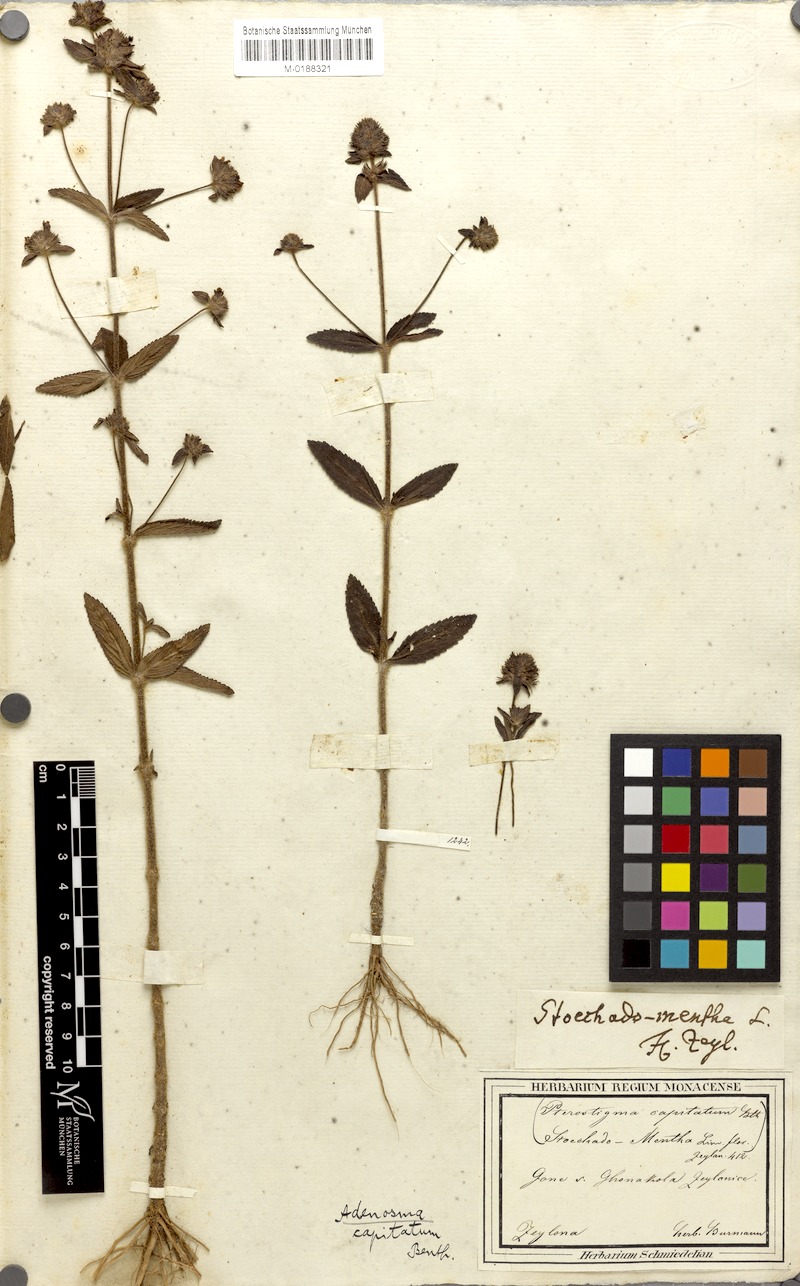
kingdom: Plantae
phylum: Tracheophyta
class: Magnoliopsida
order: Lamiales
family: Plantaginaceae
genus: Adenosma
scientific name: Adenosma indiana
